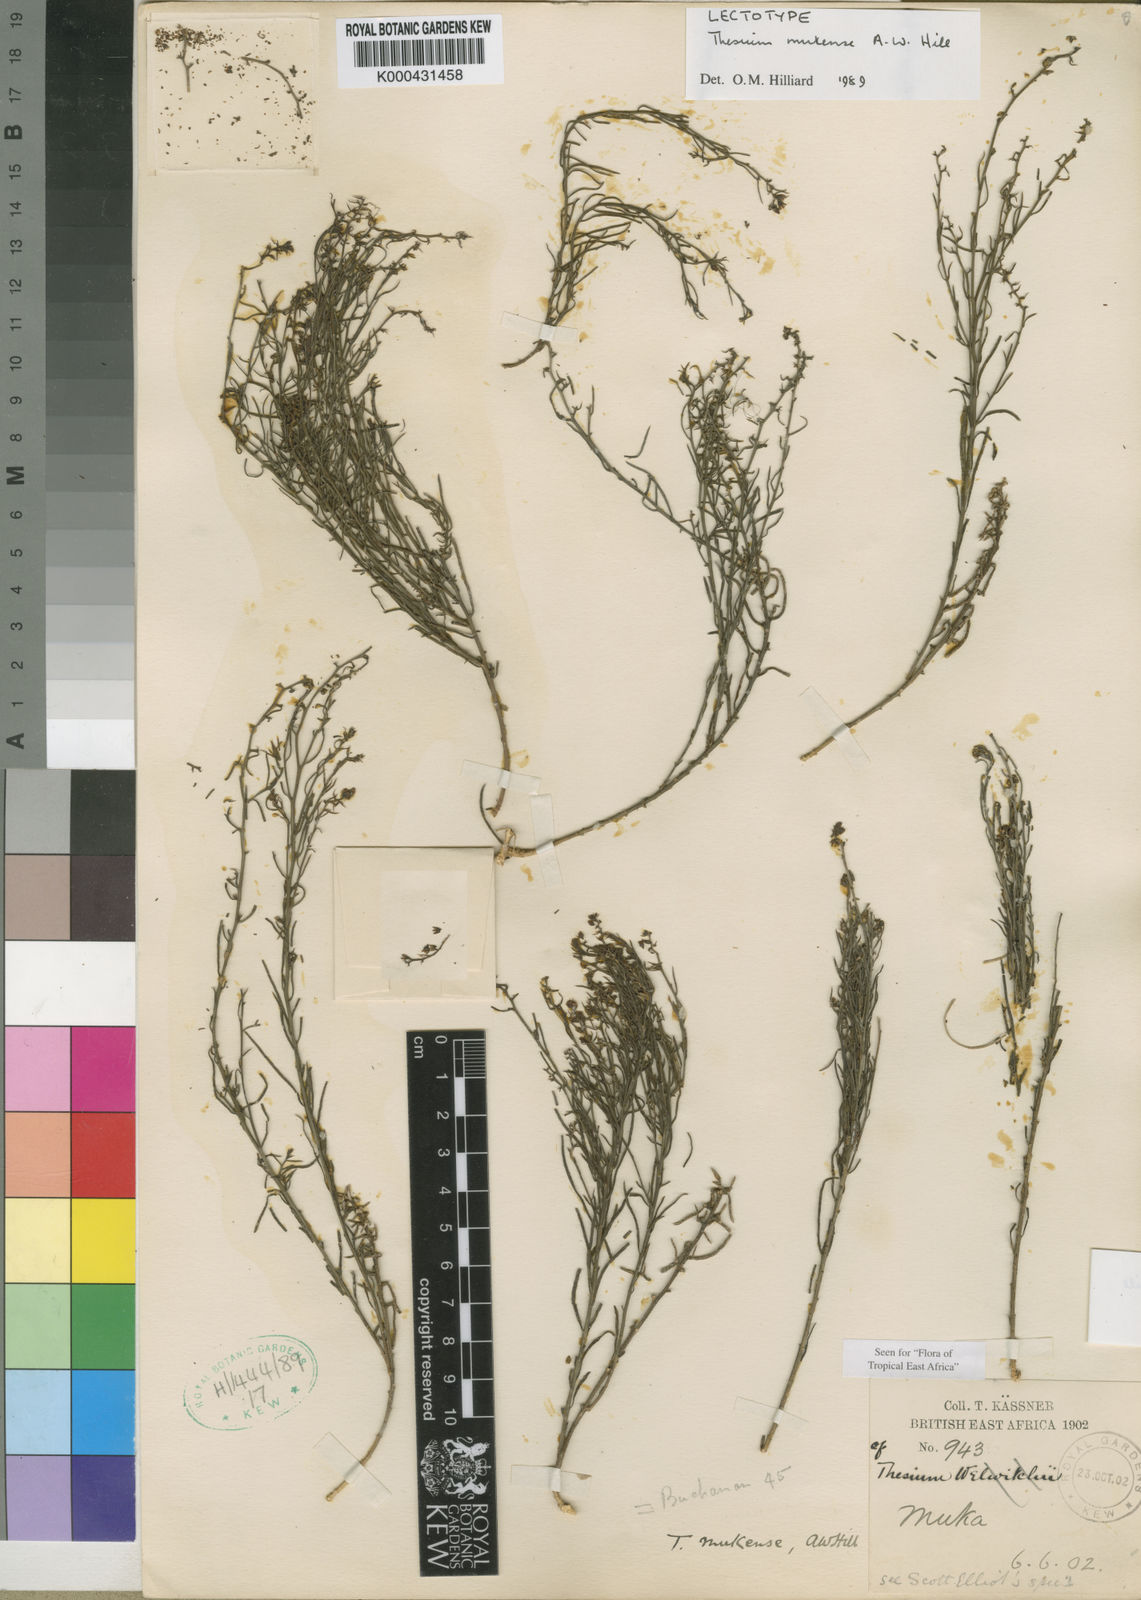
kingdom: Plantae
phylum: Tracheophyta
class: Magnoliopsida
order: Santalales
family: Thesiaceae
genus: Thesium
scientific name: Thesium whyteanum
